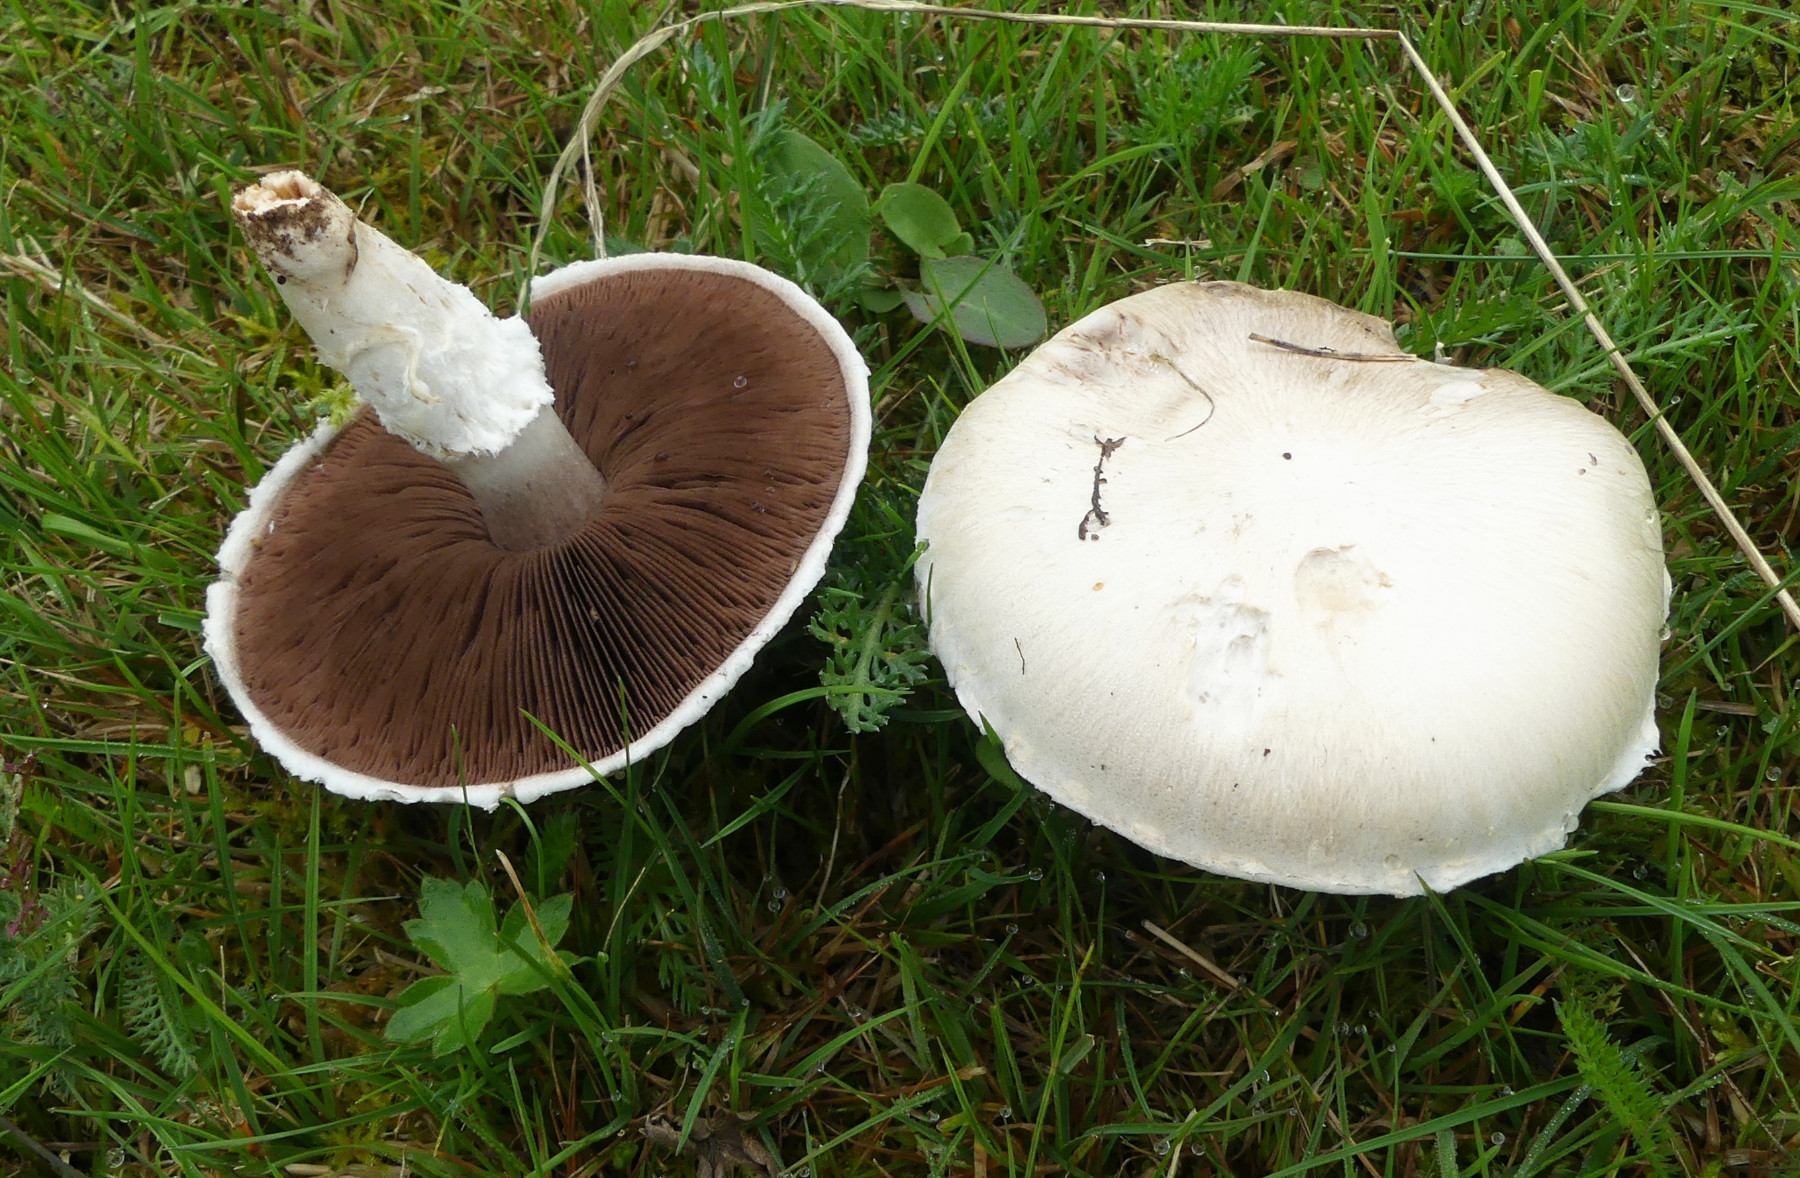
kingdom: Fungi
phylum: Basidiomycota
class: Agaricomycetes
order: Agaricales
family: Agaricaceae
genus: Agaricus
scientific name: Agaricus campestris
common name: mark-champignon
